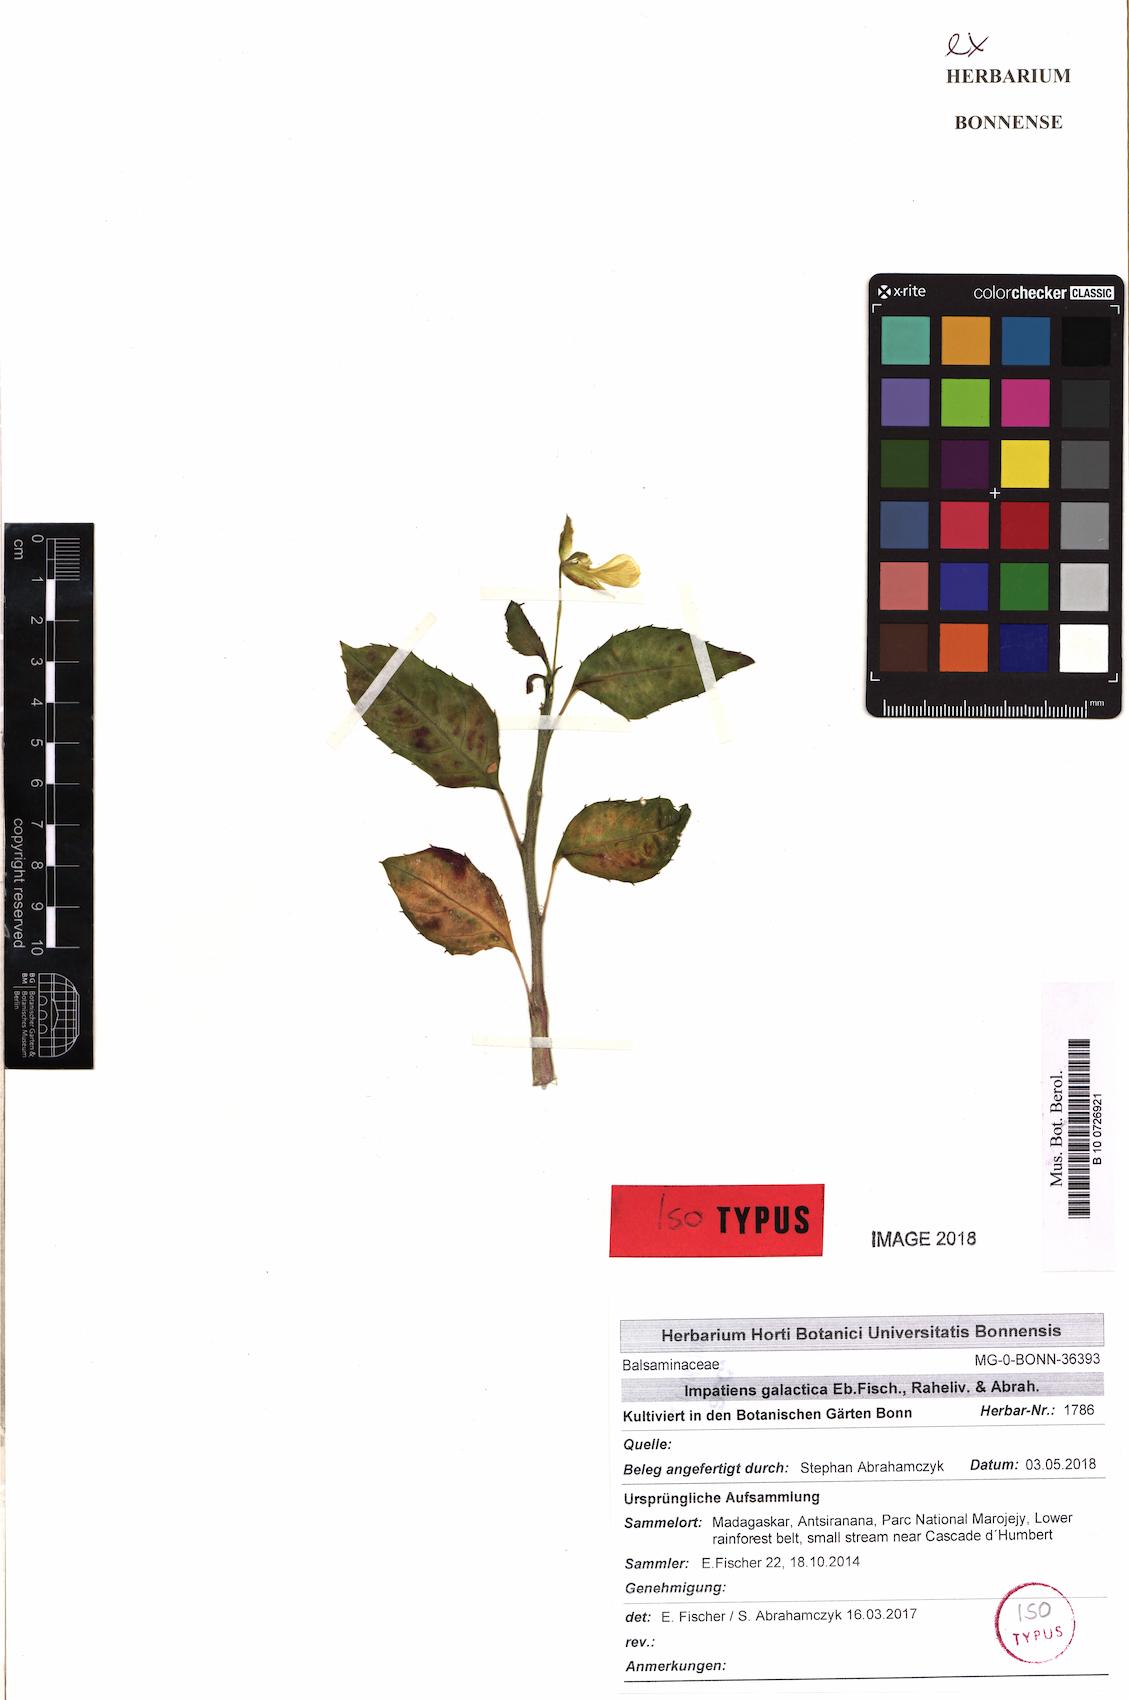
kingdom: Plantae
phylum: Tracheophyta
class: Magnoliopsida
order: Ericales
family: Balsaminaceae
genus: Impatiens
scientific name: Impatiens galactica
